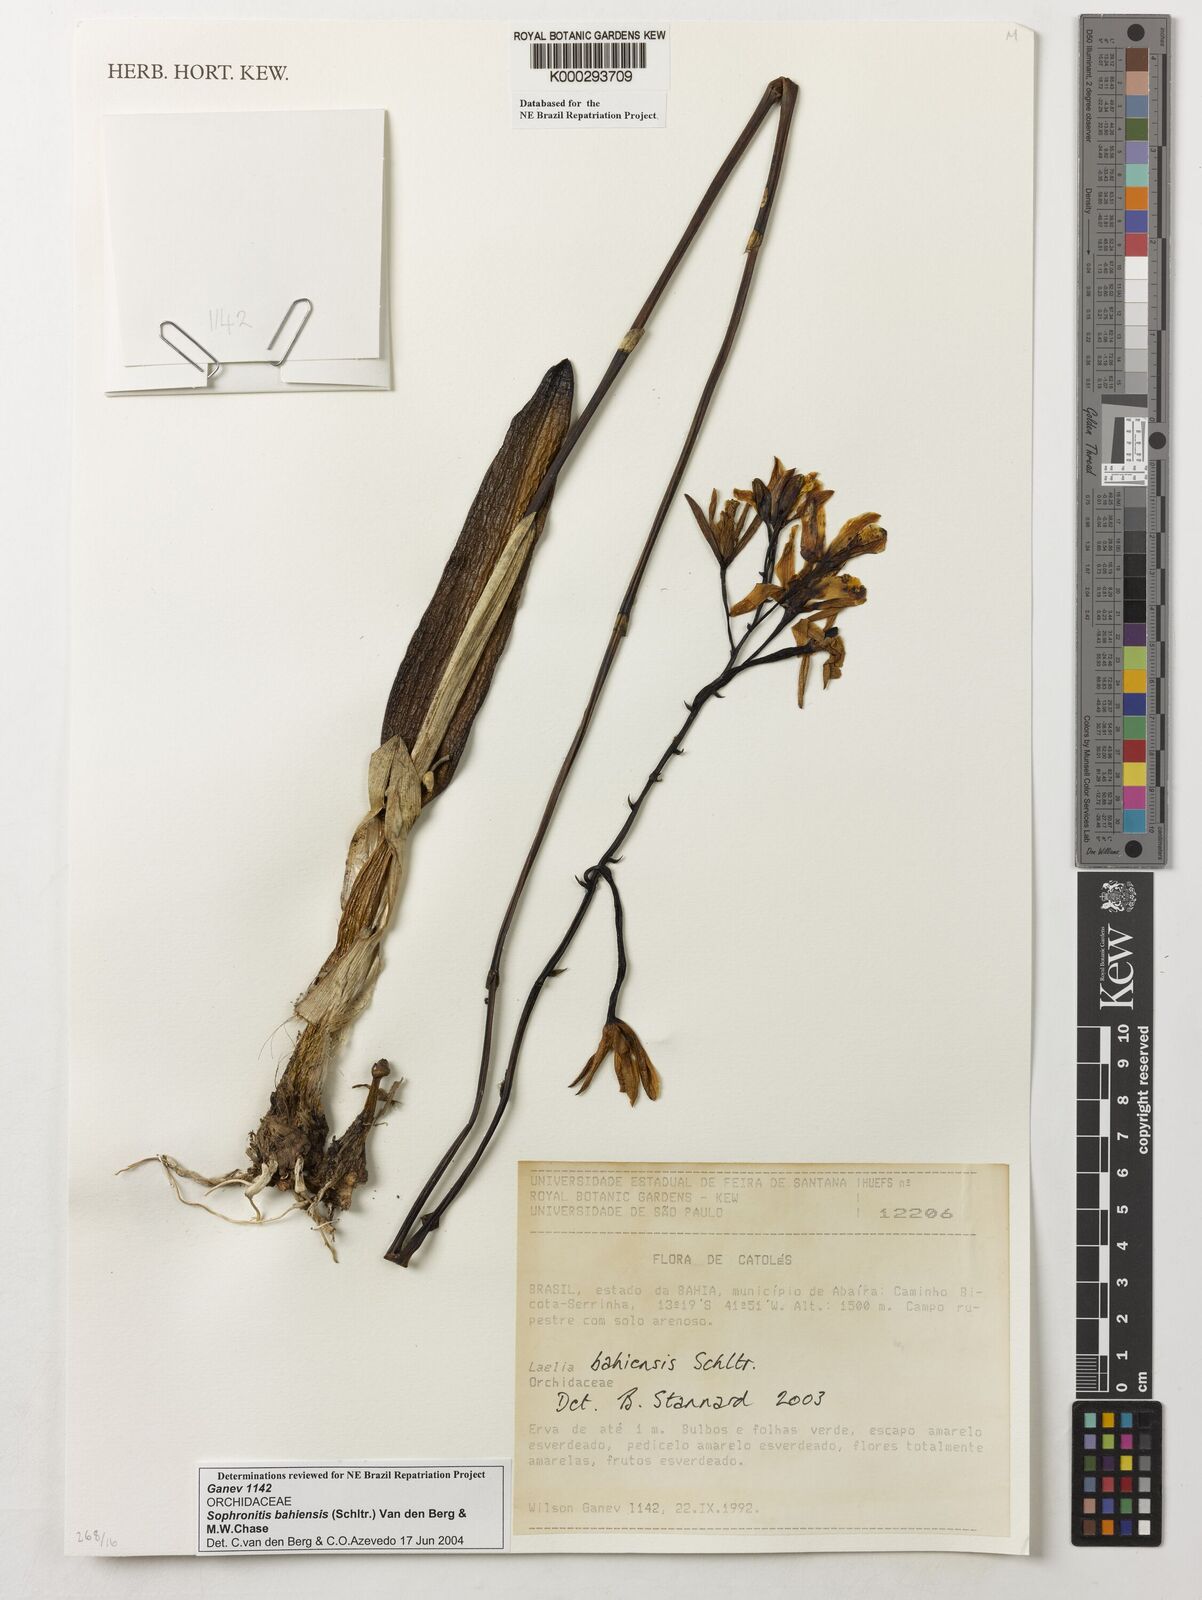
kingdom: Plantae
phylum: Tracheophyta
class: Liliopsida
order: Asparagales
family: Orchidaceae
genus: Cattleya
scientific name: Cattleya luetzelburgii
